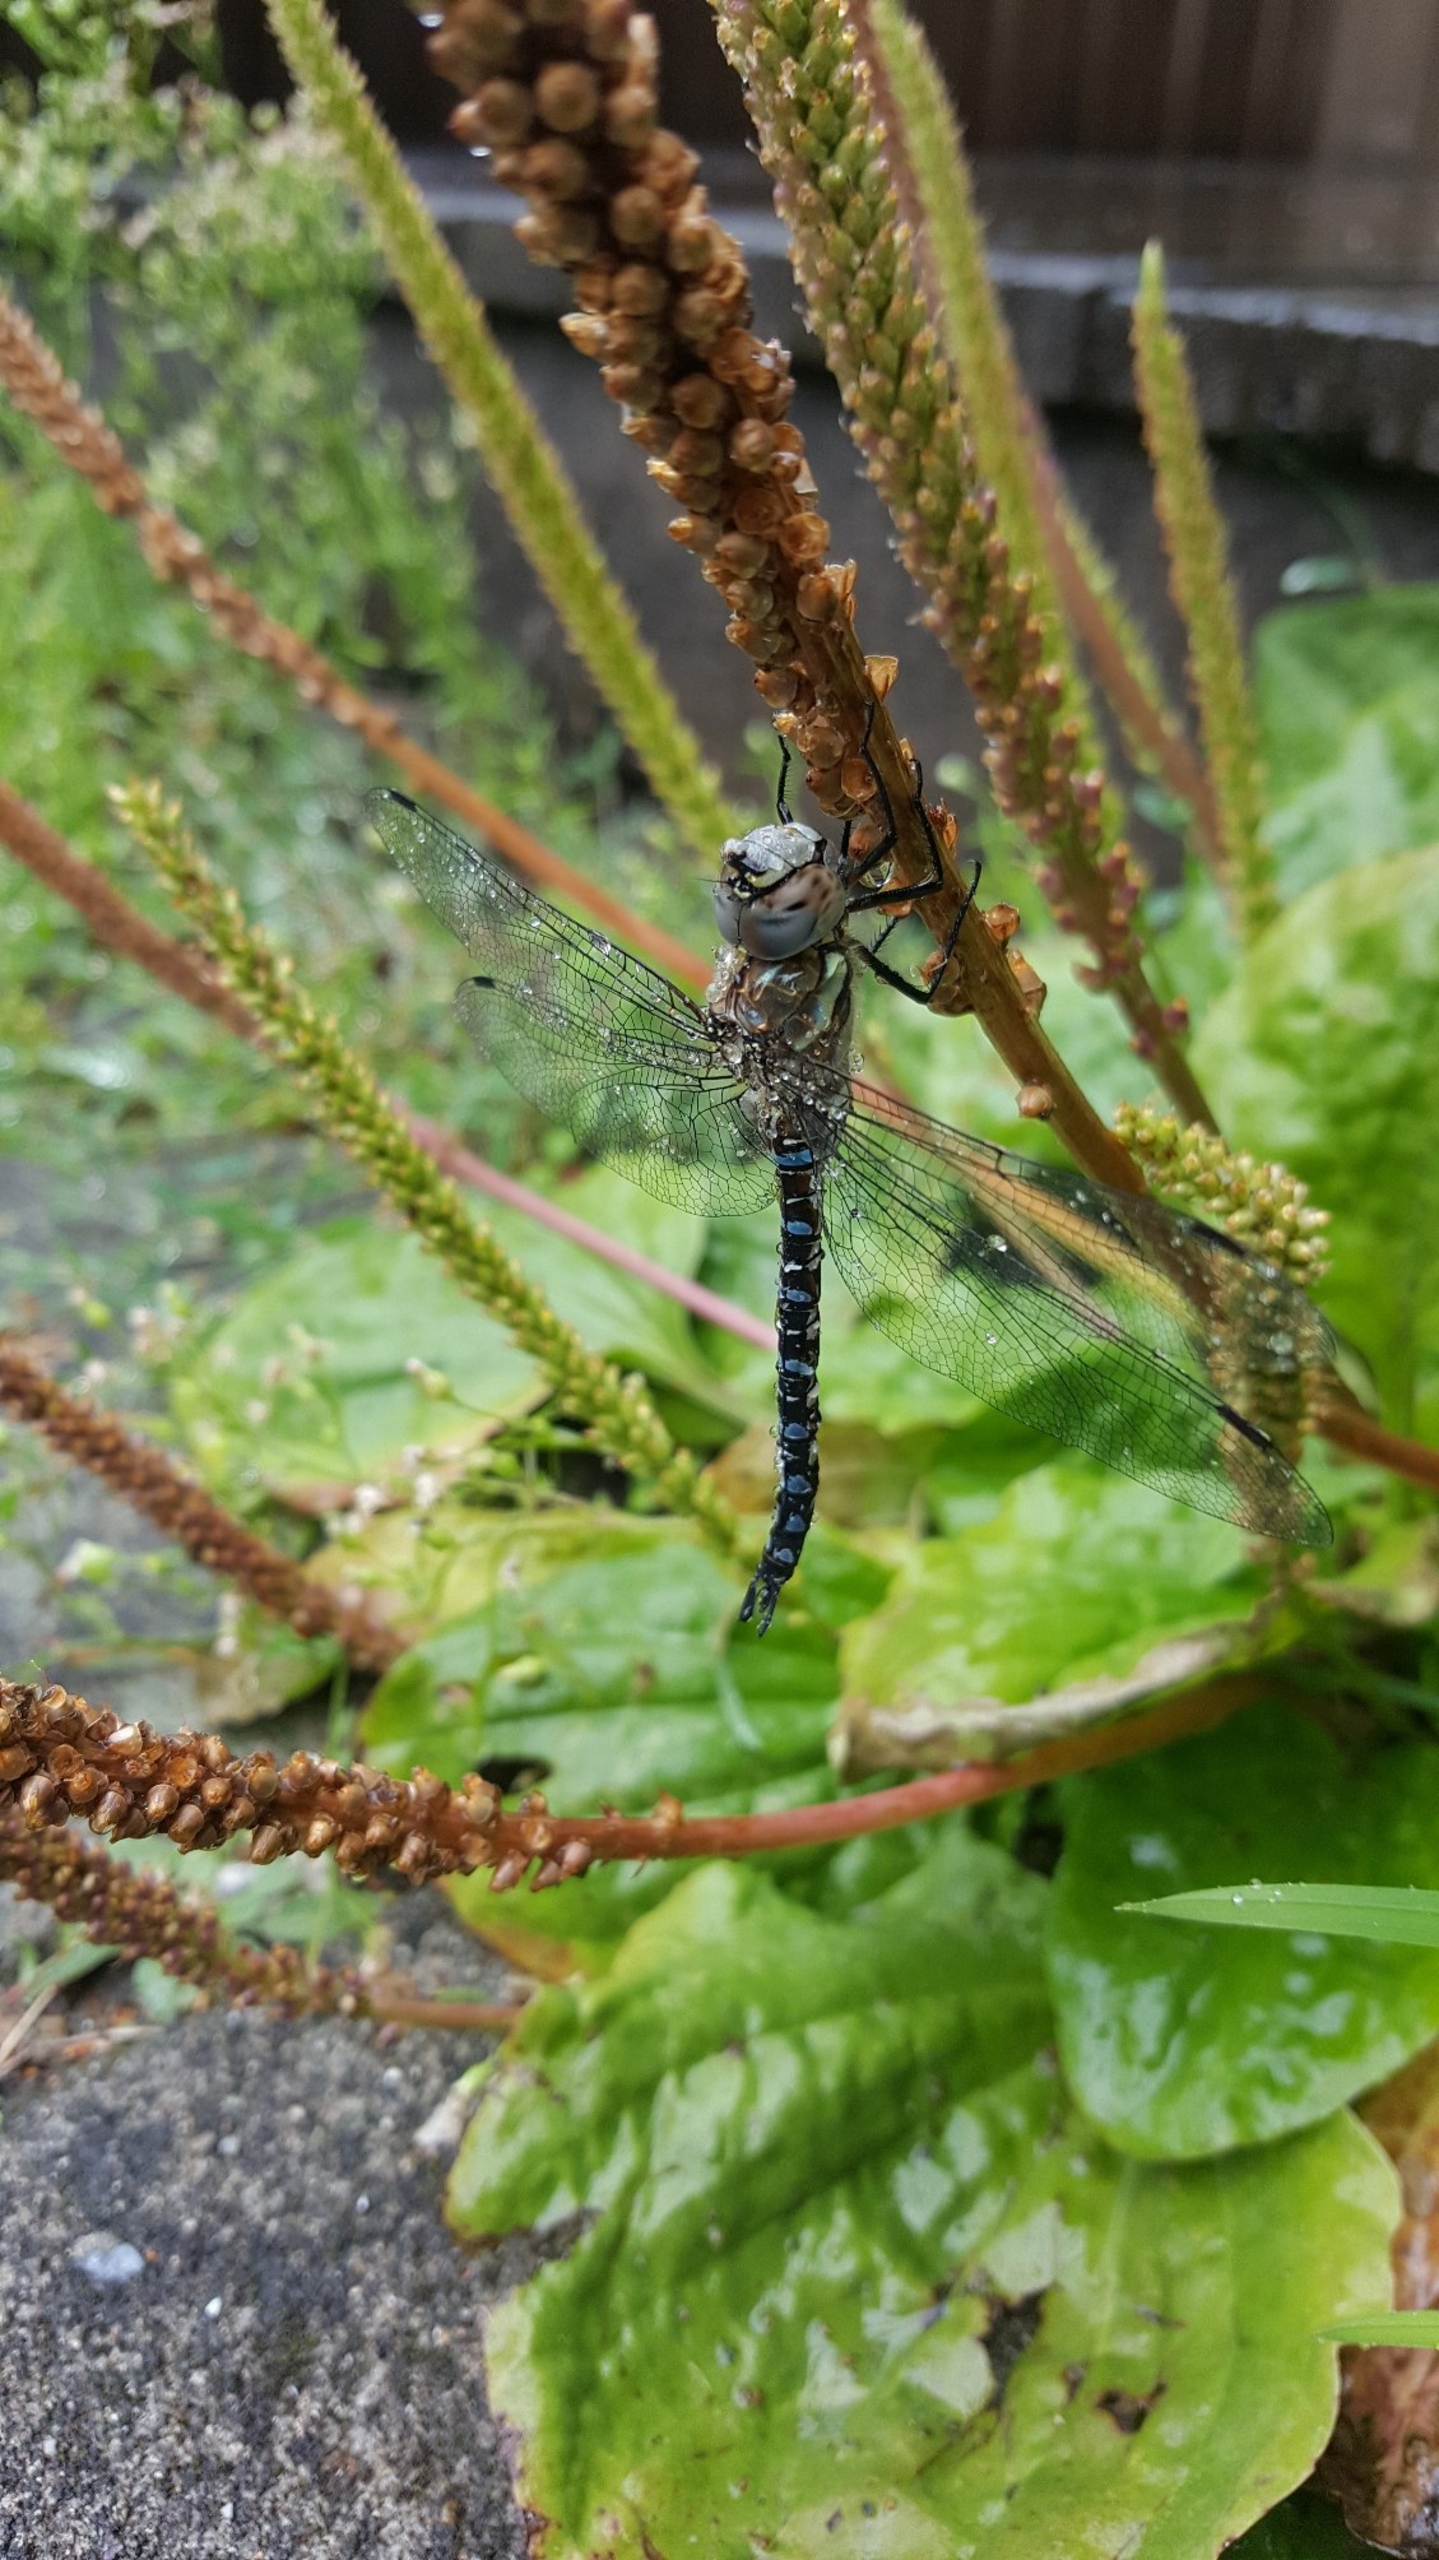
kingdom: Animalia
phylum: Arthropoda
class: Insecta
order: Odonata
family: Aeshnidae
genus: Aeshna
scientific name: Aeshna mixta
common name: Efterårs-mosaikguldsmed
